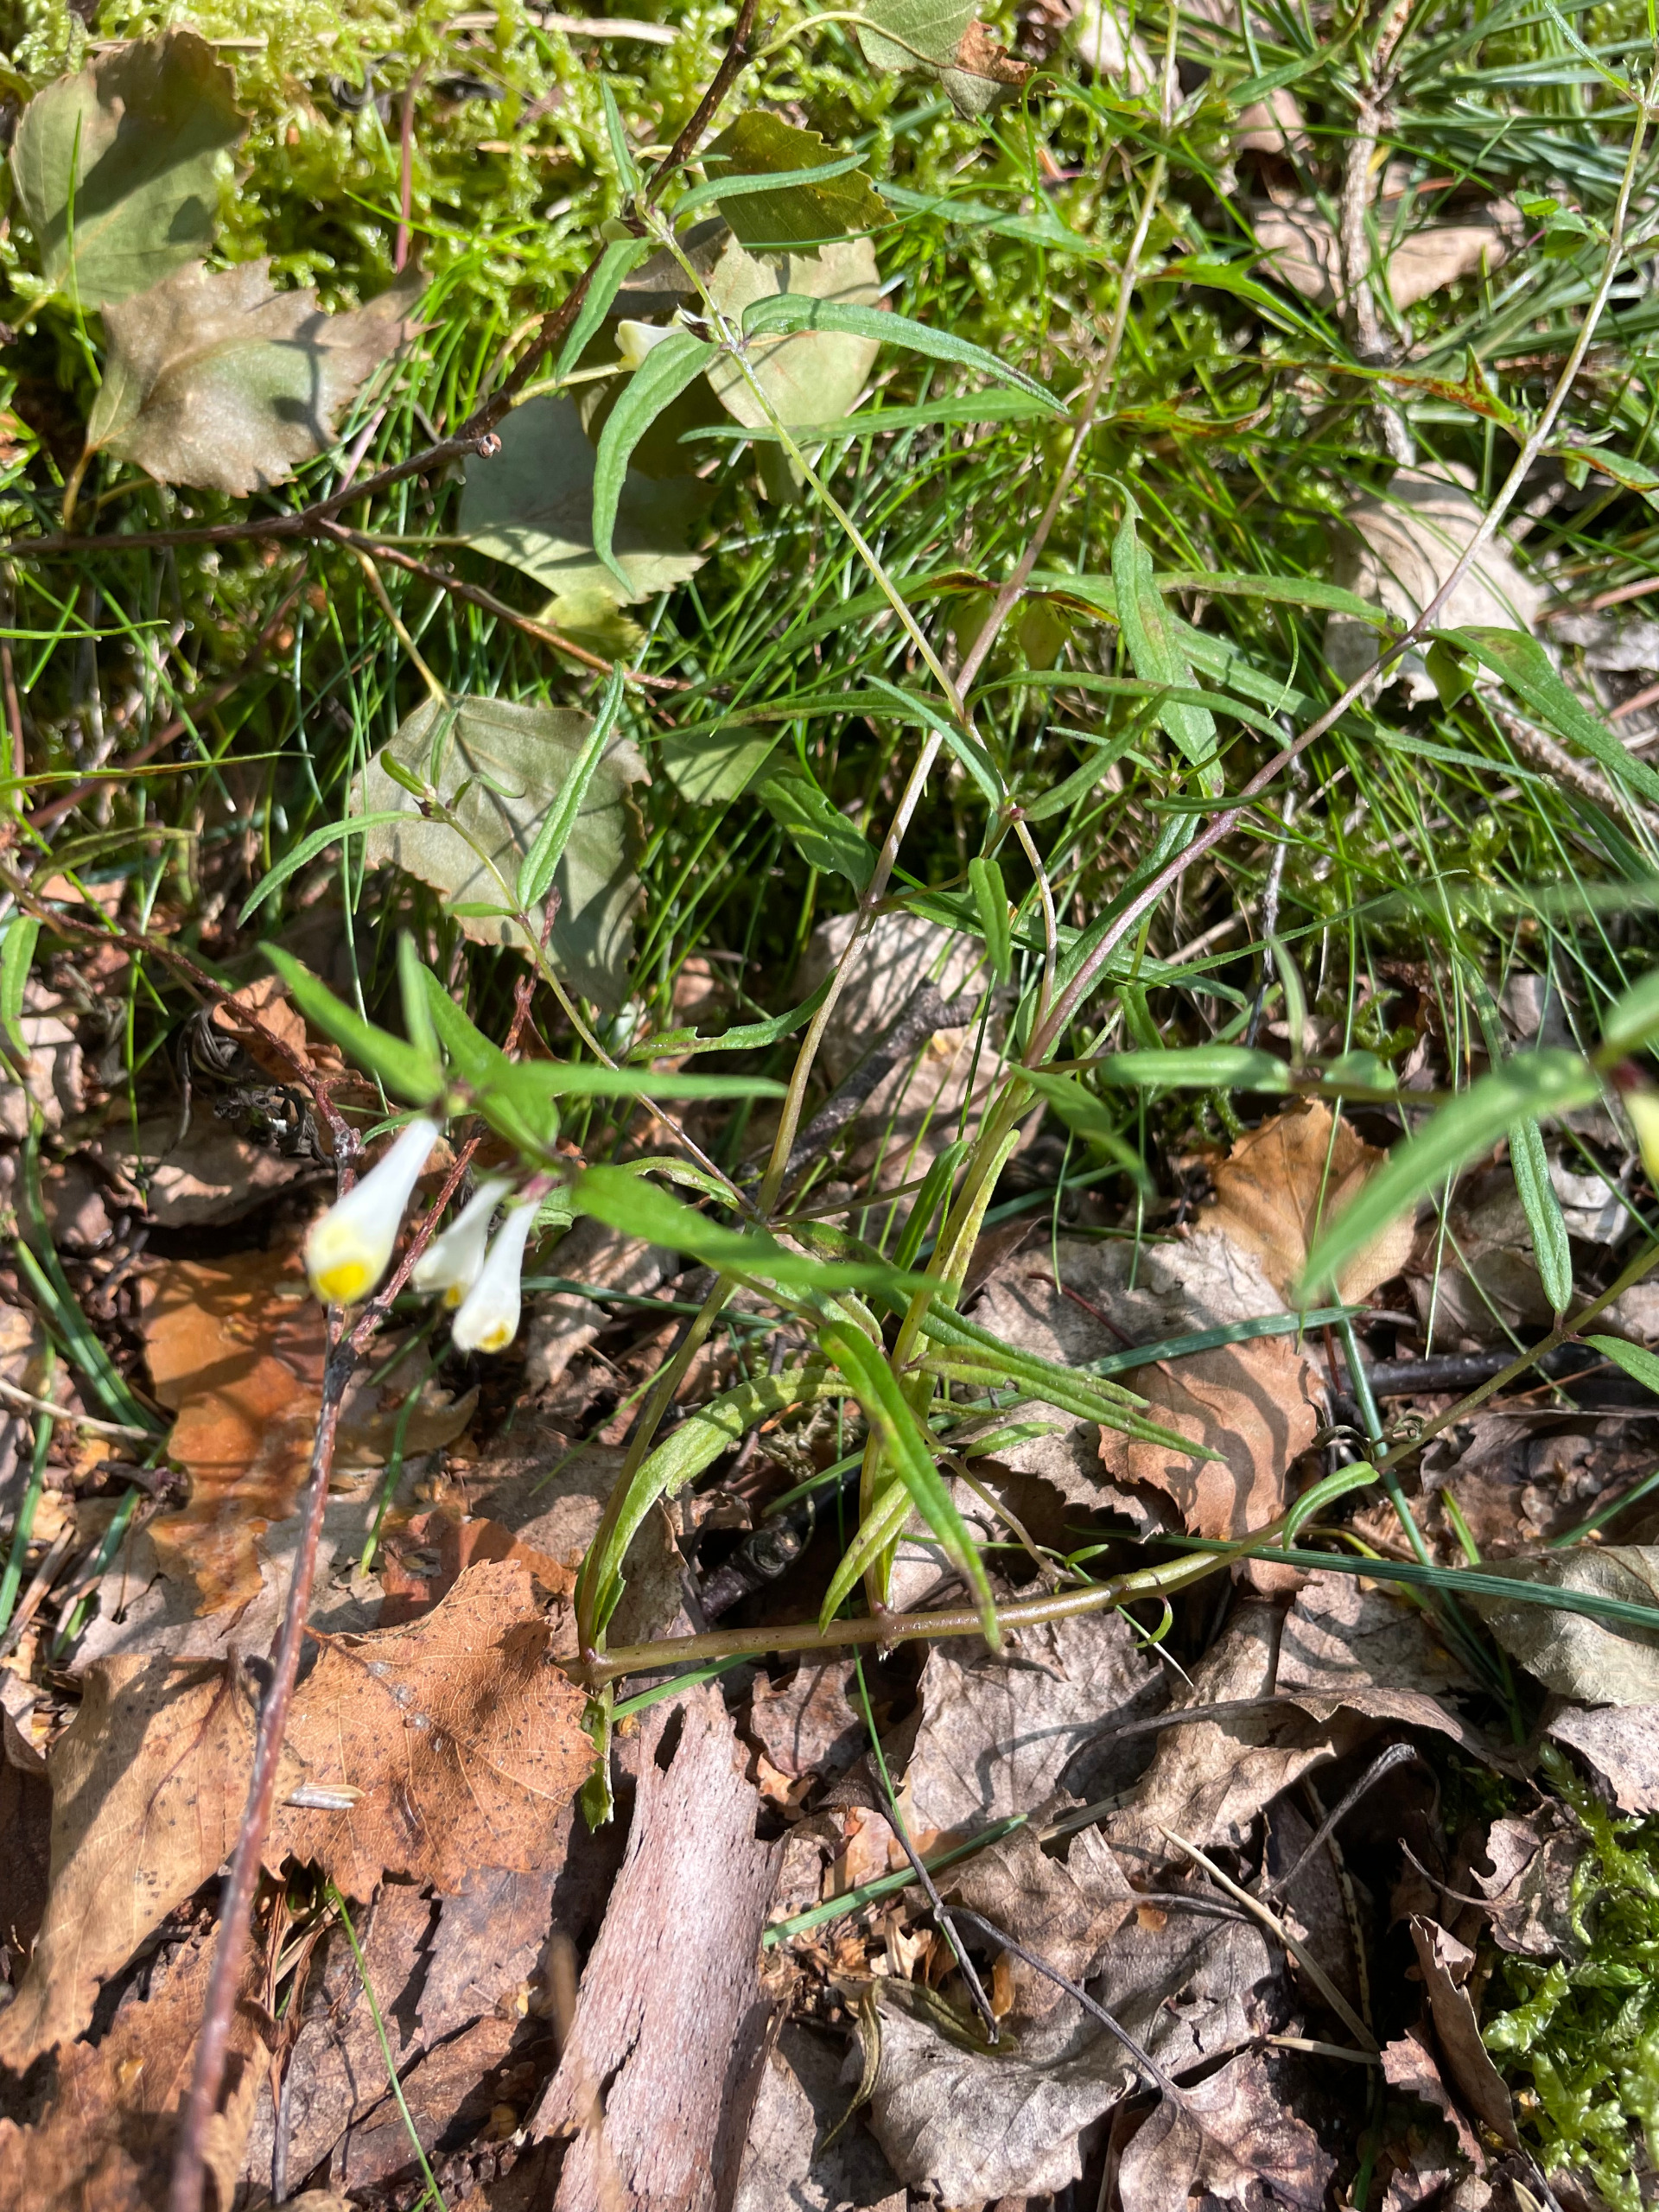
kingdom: Plantae
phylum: Tracheophyta
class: Magnoliopsida
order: Lamiales
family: Orobanchaceae
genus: Melampyrum
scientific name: Melampyrum pratense
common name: Almindelig kohvede
